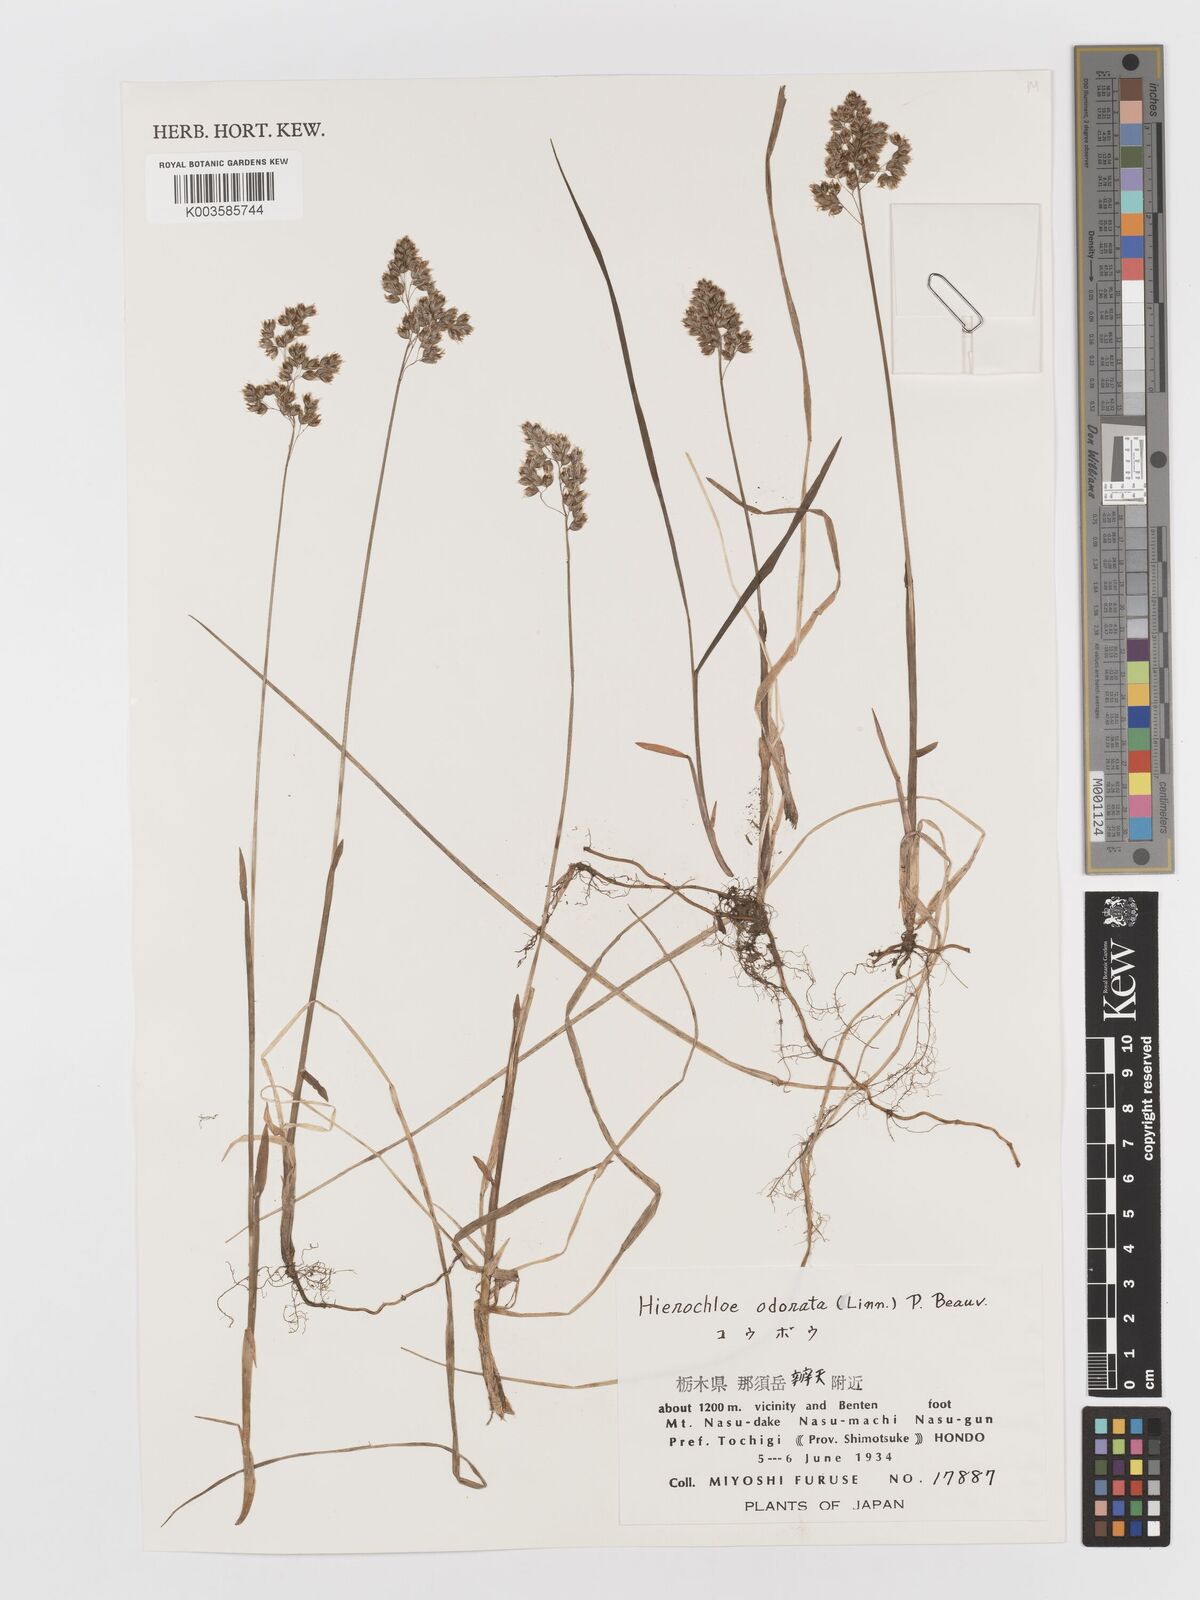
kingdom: Plantae
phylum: Tracheophyta
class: Liliopsida
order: Poales
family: Poaceae
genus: Anthoxanthum
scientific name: Anthoxanthum nitens
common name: Holy grass
